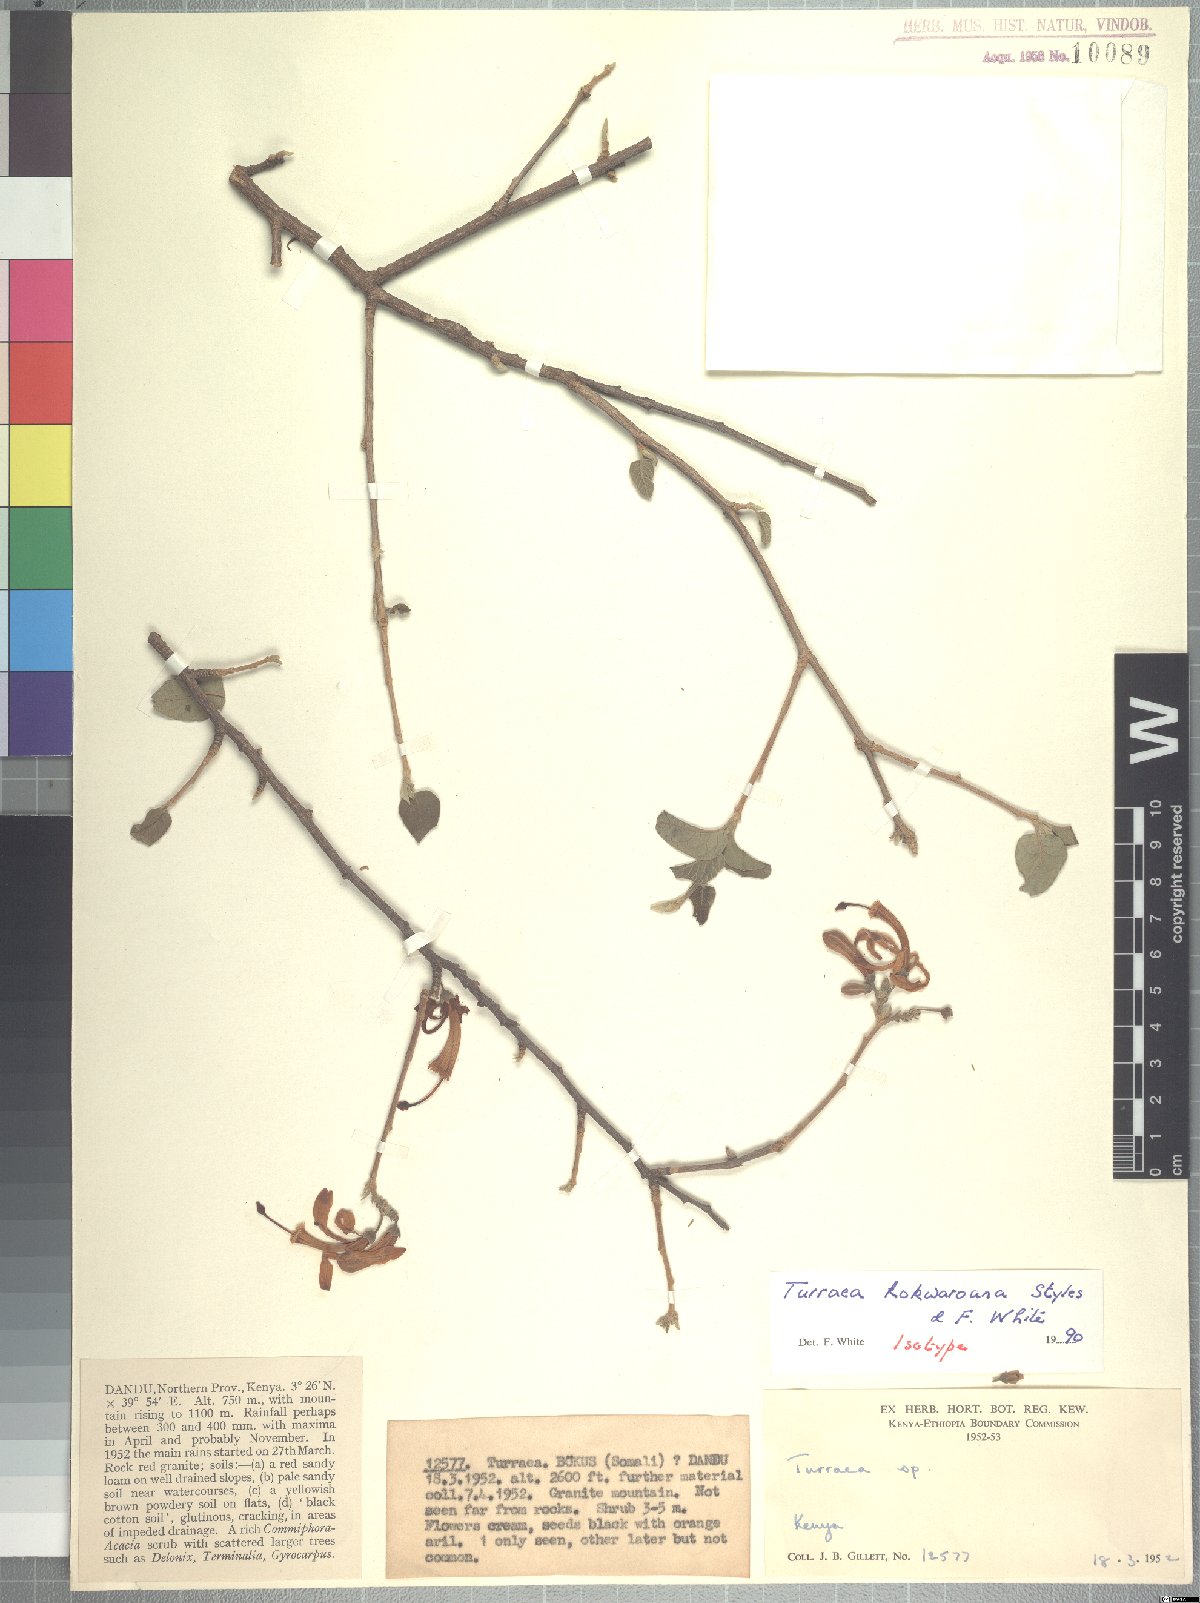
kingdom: Plantae
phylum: Tracheophyta
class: Magnoliopsida
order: Sapindales
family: Meliaceae
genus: Turraea
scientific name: Turraea kokwaroana
